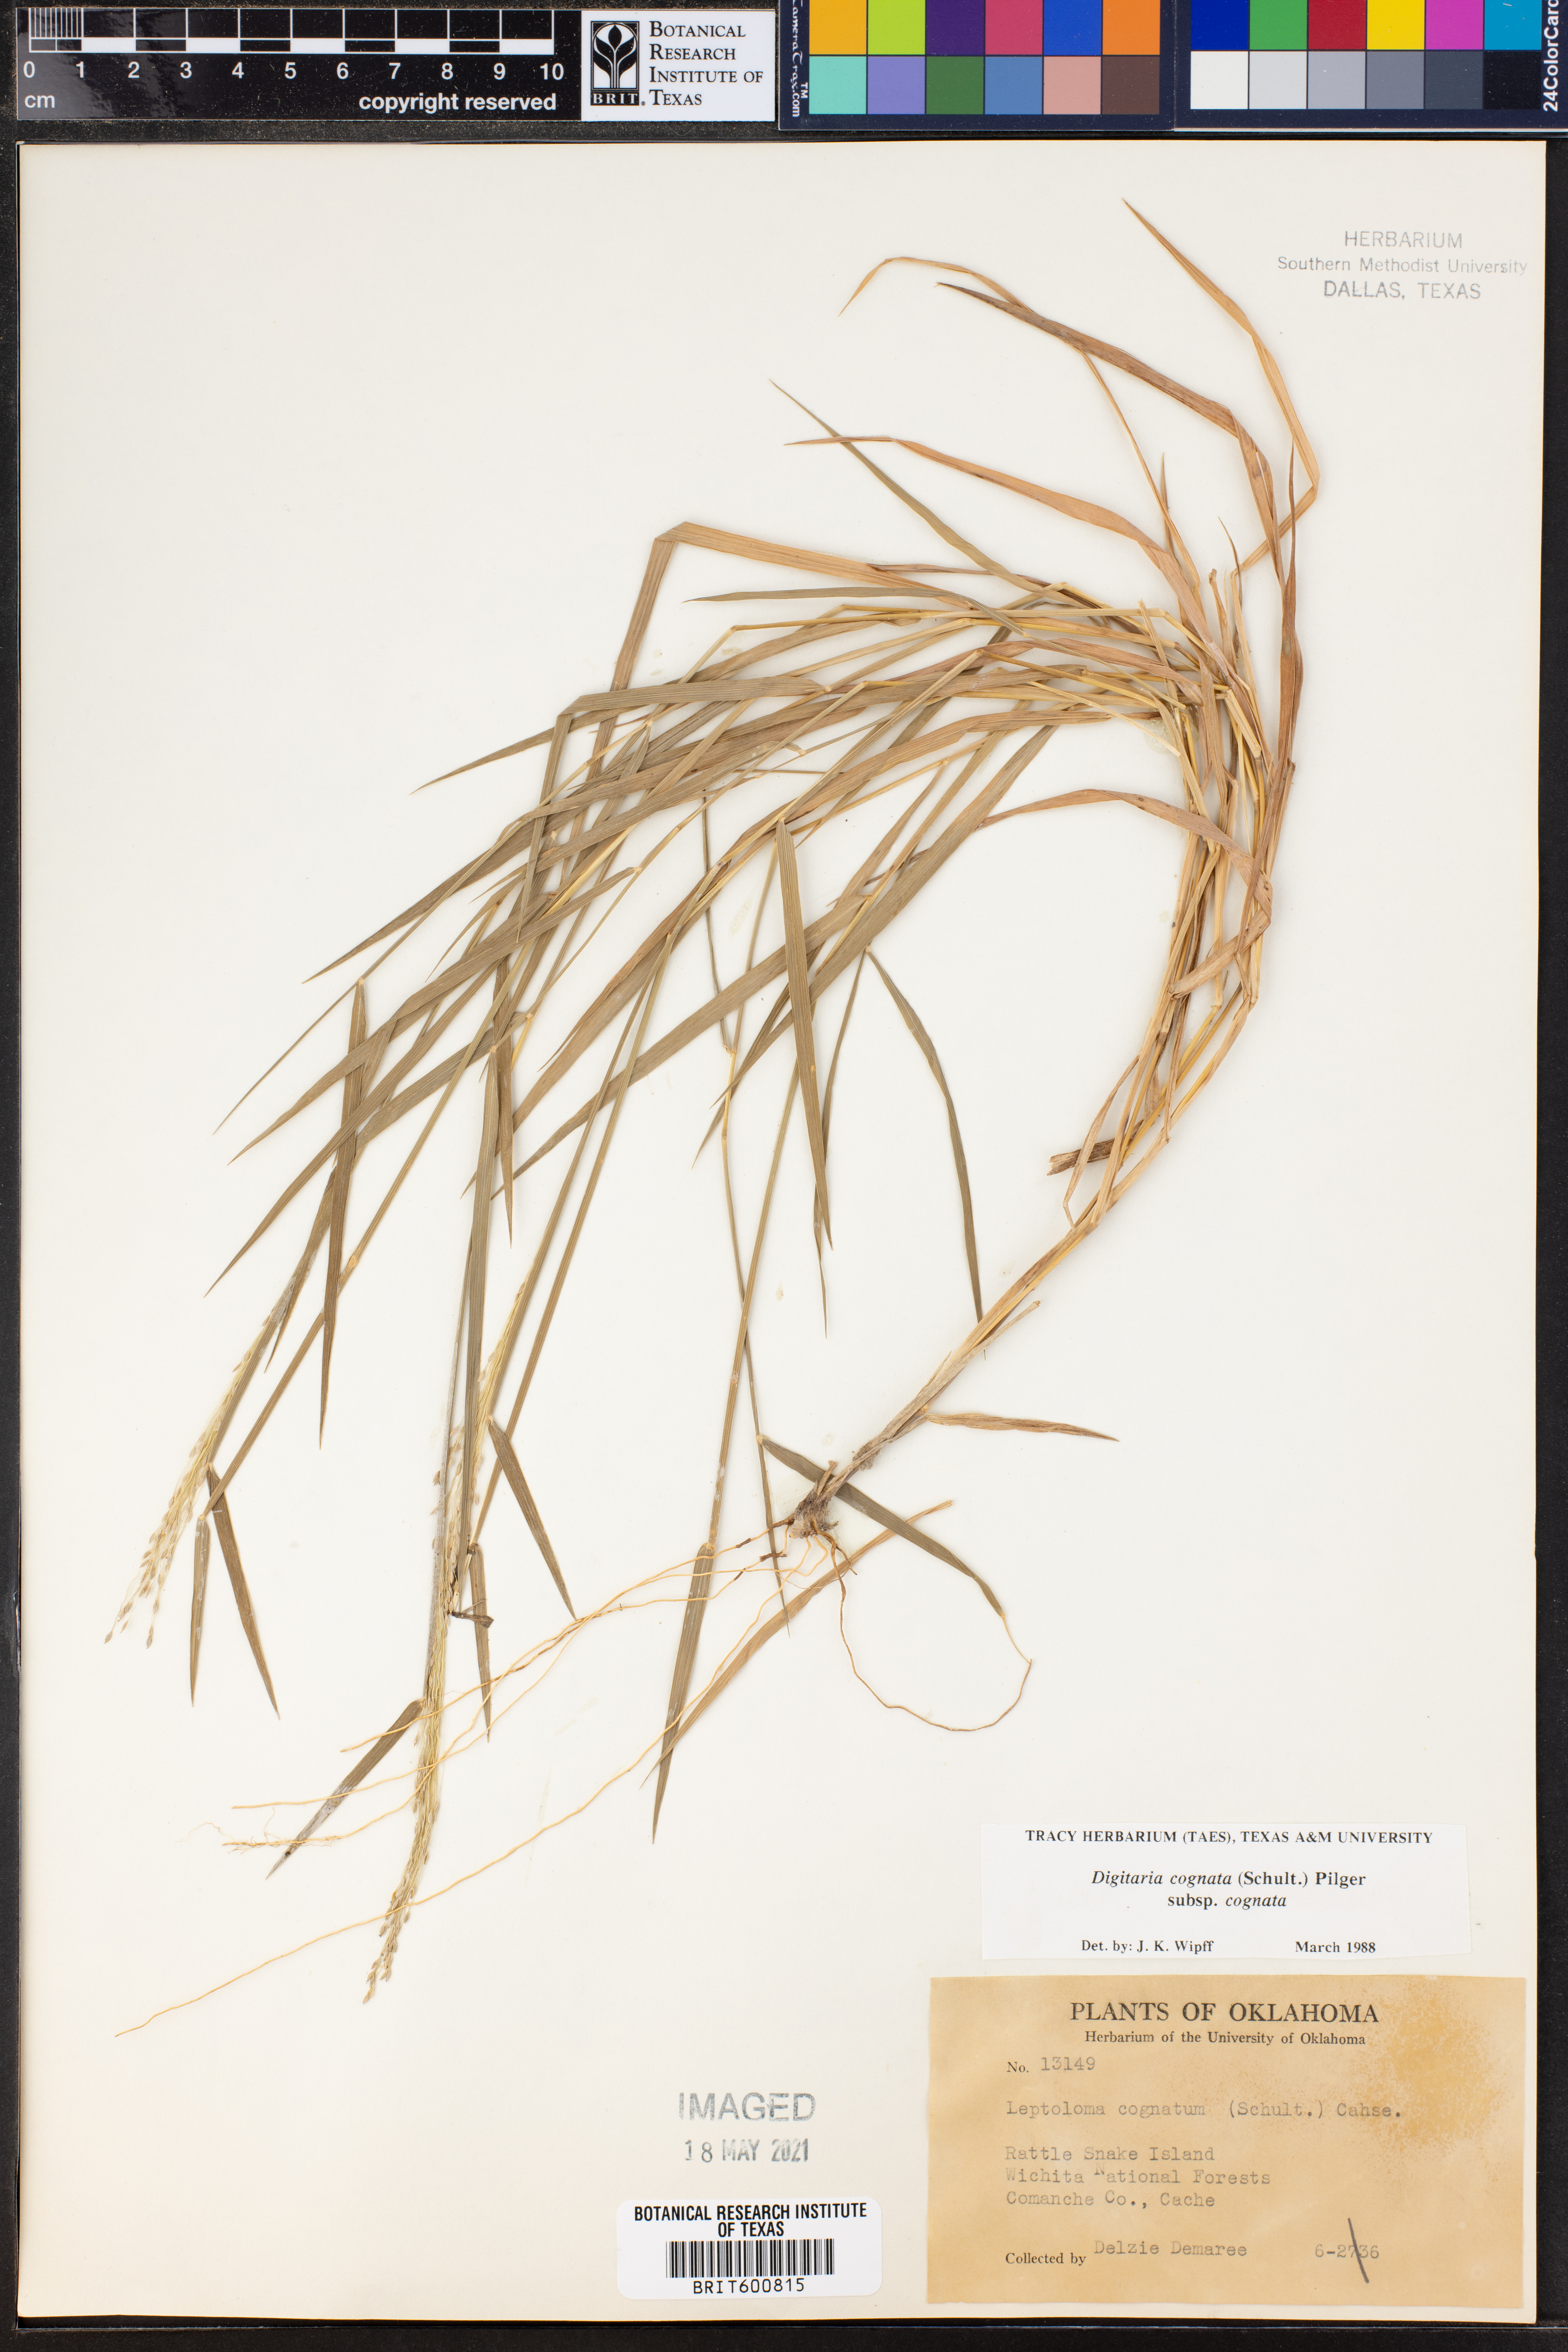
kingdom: Plantae
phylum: Tracheophyta
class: Liliopsida
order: Poales
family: Poaceae
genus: Digitaria
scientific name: Digitaria cognata
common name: Fall witchgrass
